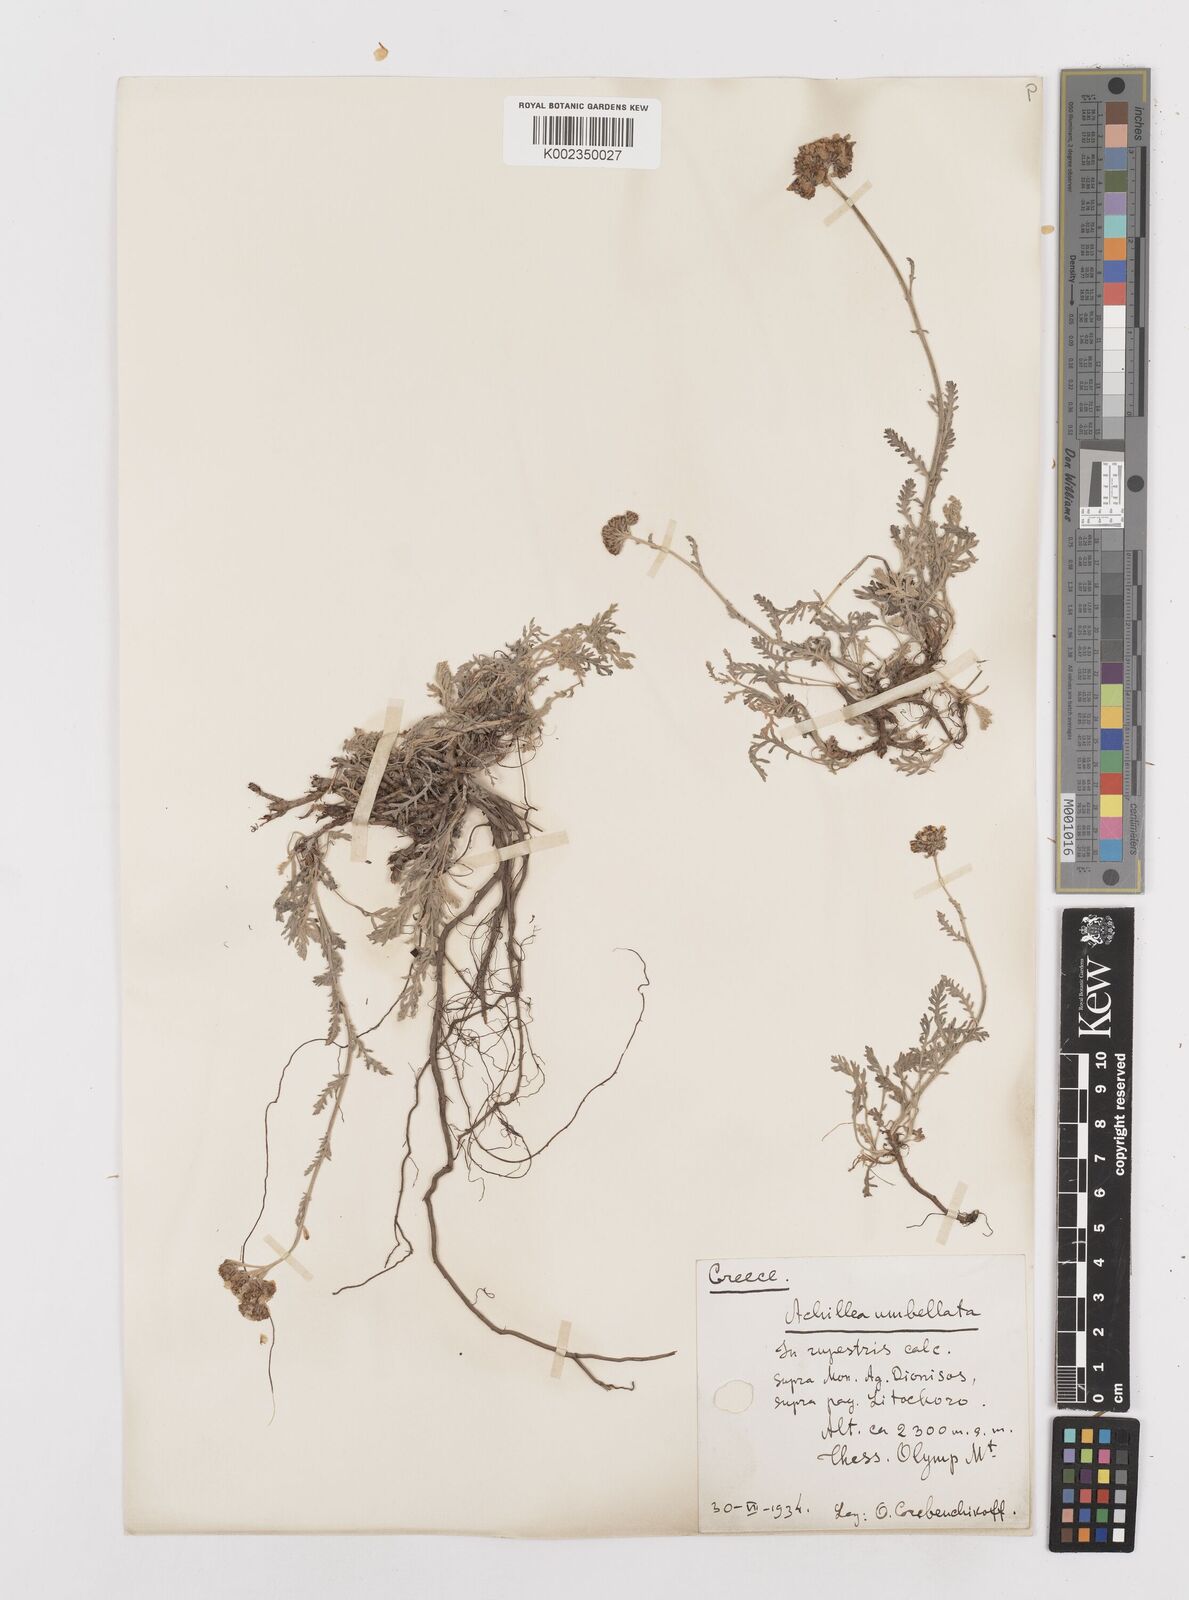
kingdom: Plantae
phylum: Tracheophyta
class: Magnoliopsida
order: Asterales
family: Asteraceae
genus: Achillea
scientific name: Achillea umbellata
